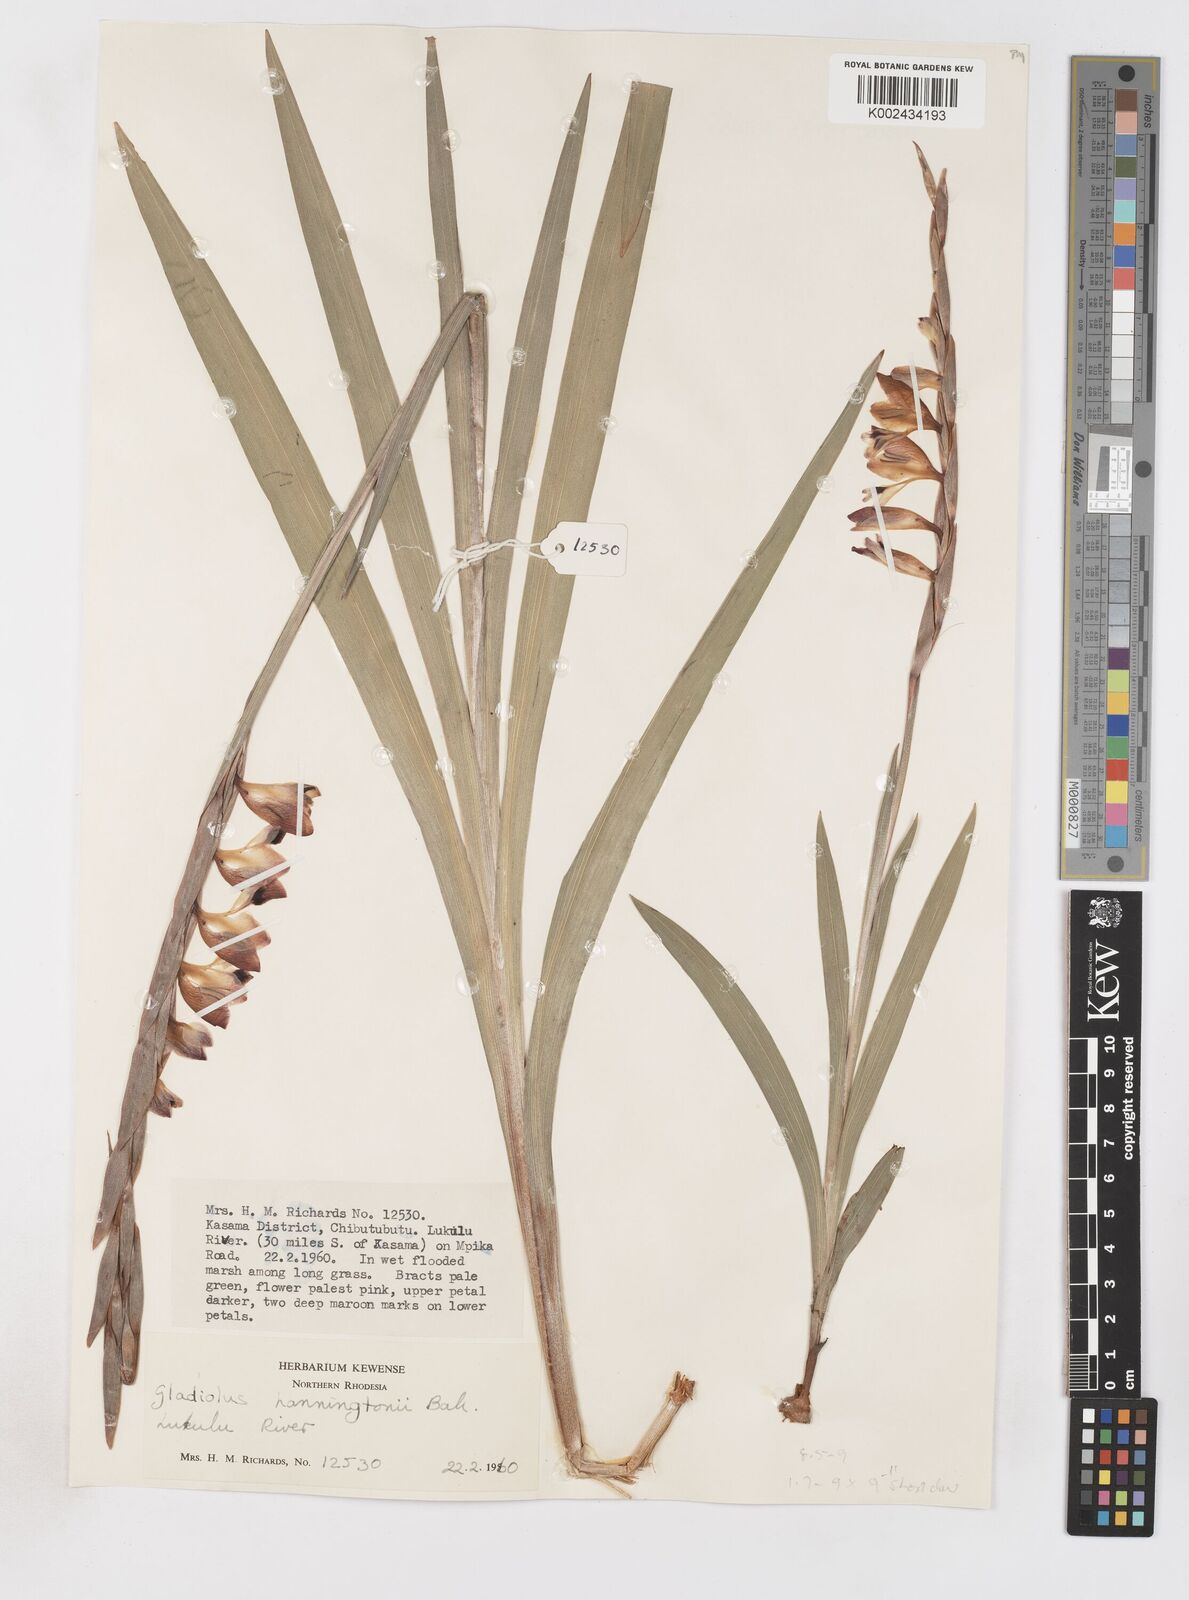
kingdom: Plantae
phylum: Tracheophyta
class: Liliopsida
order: Asparagales
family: Iridaceae
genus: Gladiolus
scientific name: Gladiolus gregarius
